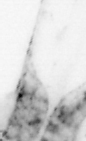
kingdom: Animalia
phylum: Chaetognatha
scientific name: Chaetognatha
